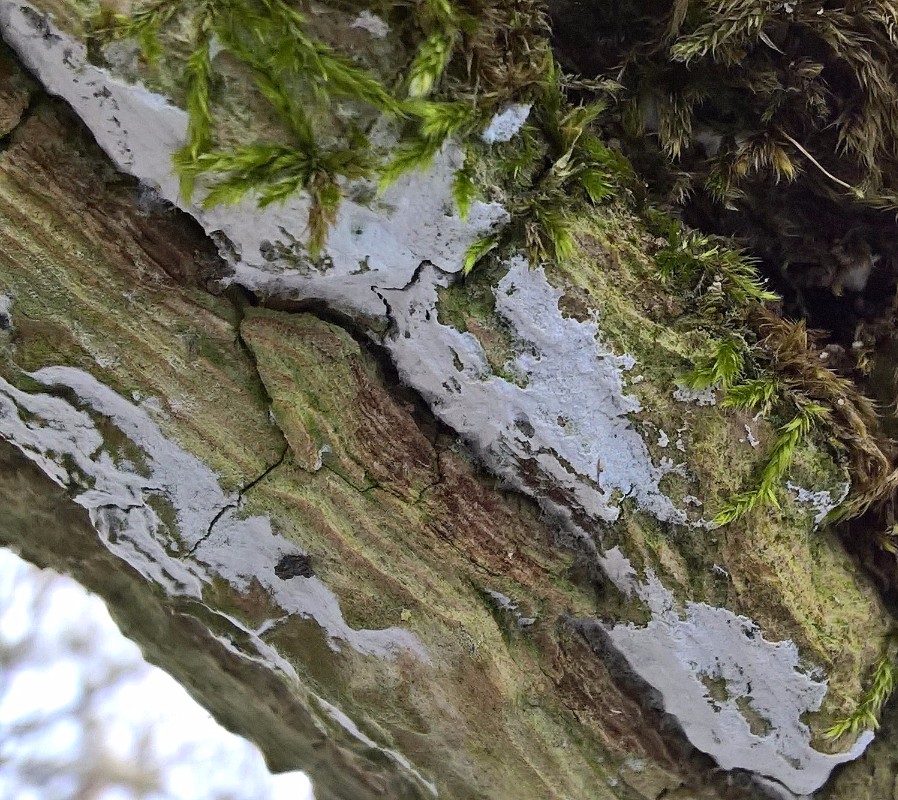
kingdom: Fungi
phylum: Basidiomycota
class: Agaricomycetes
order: Corticiales
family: Corticiaceae
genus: Lyomyces
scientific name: Lyomyces sambuci
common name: almindelig hyldehinde
